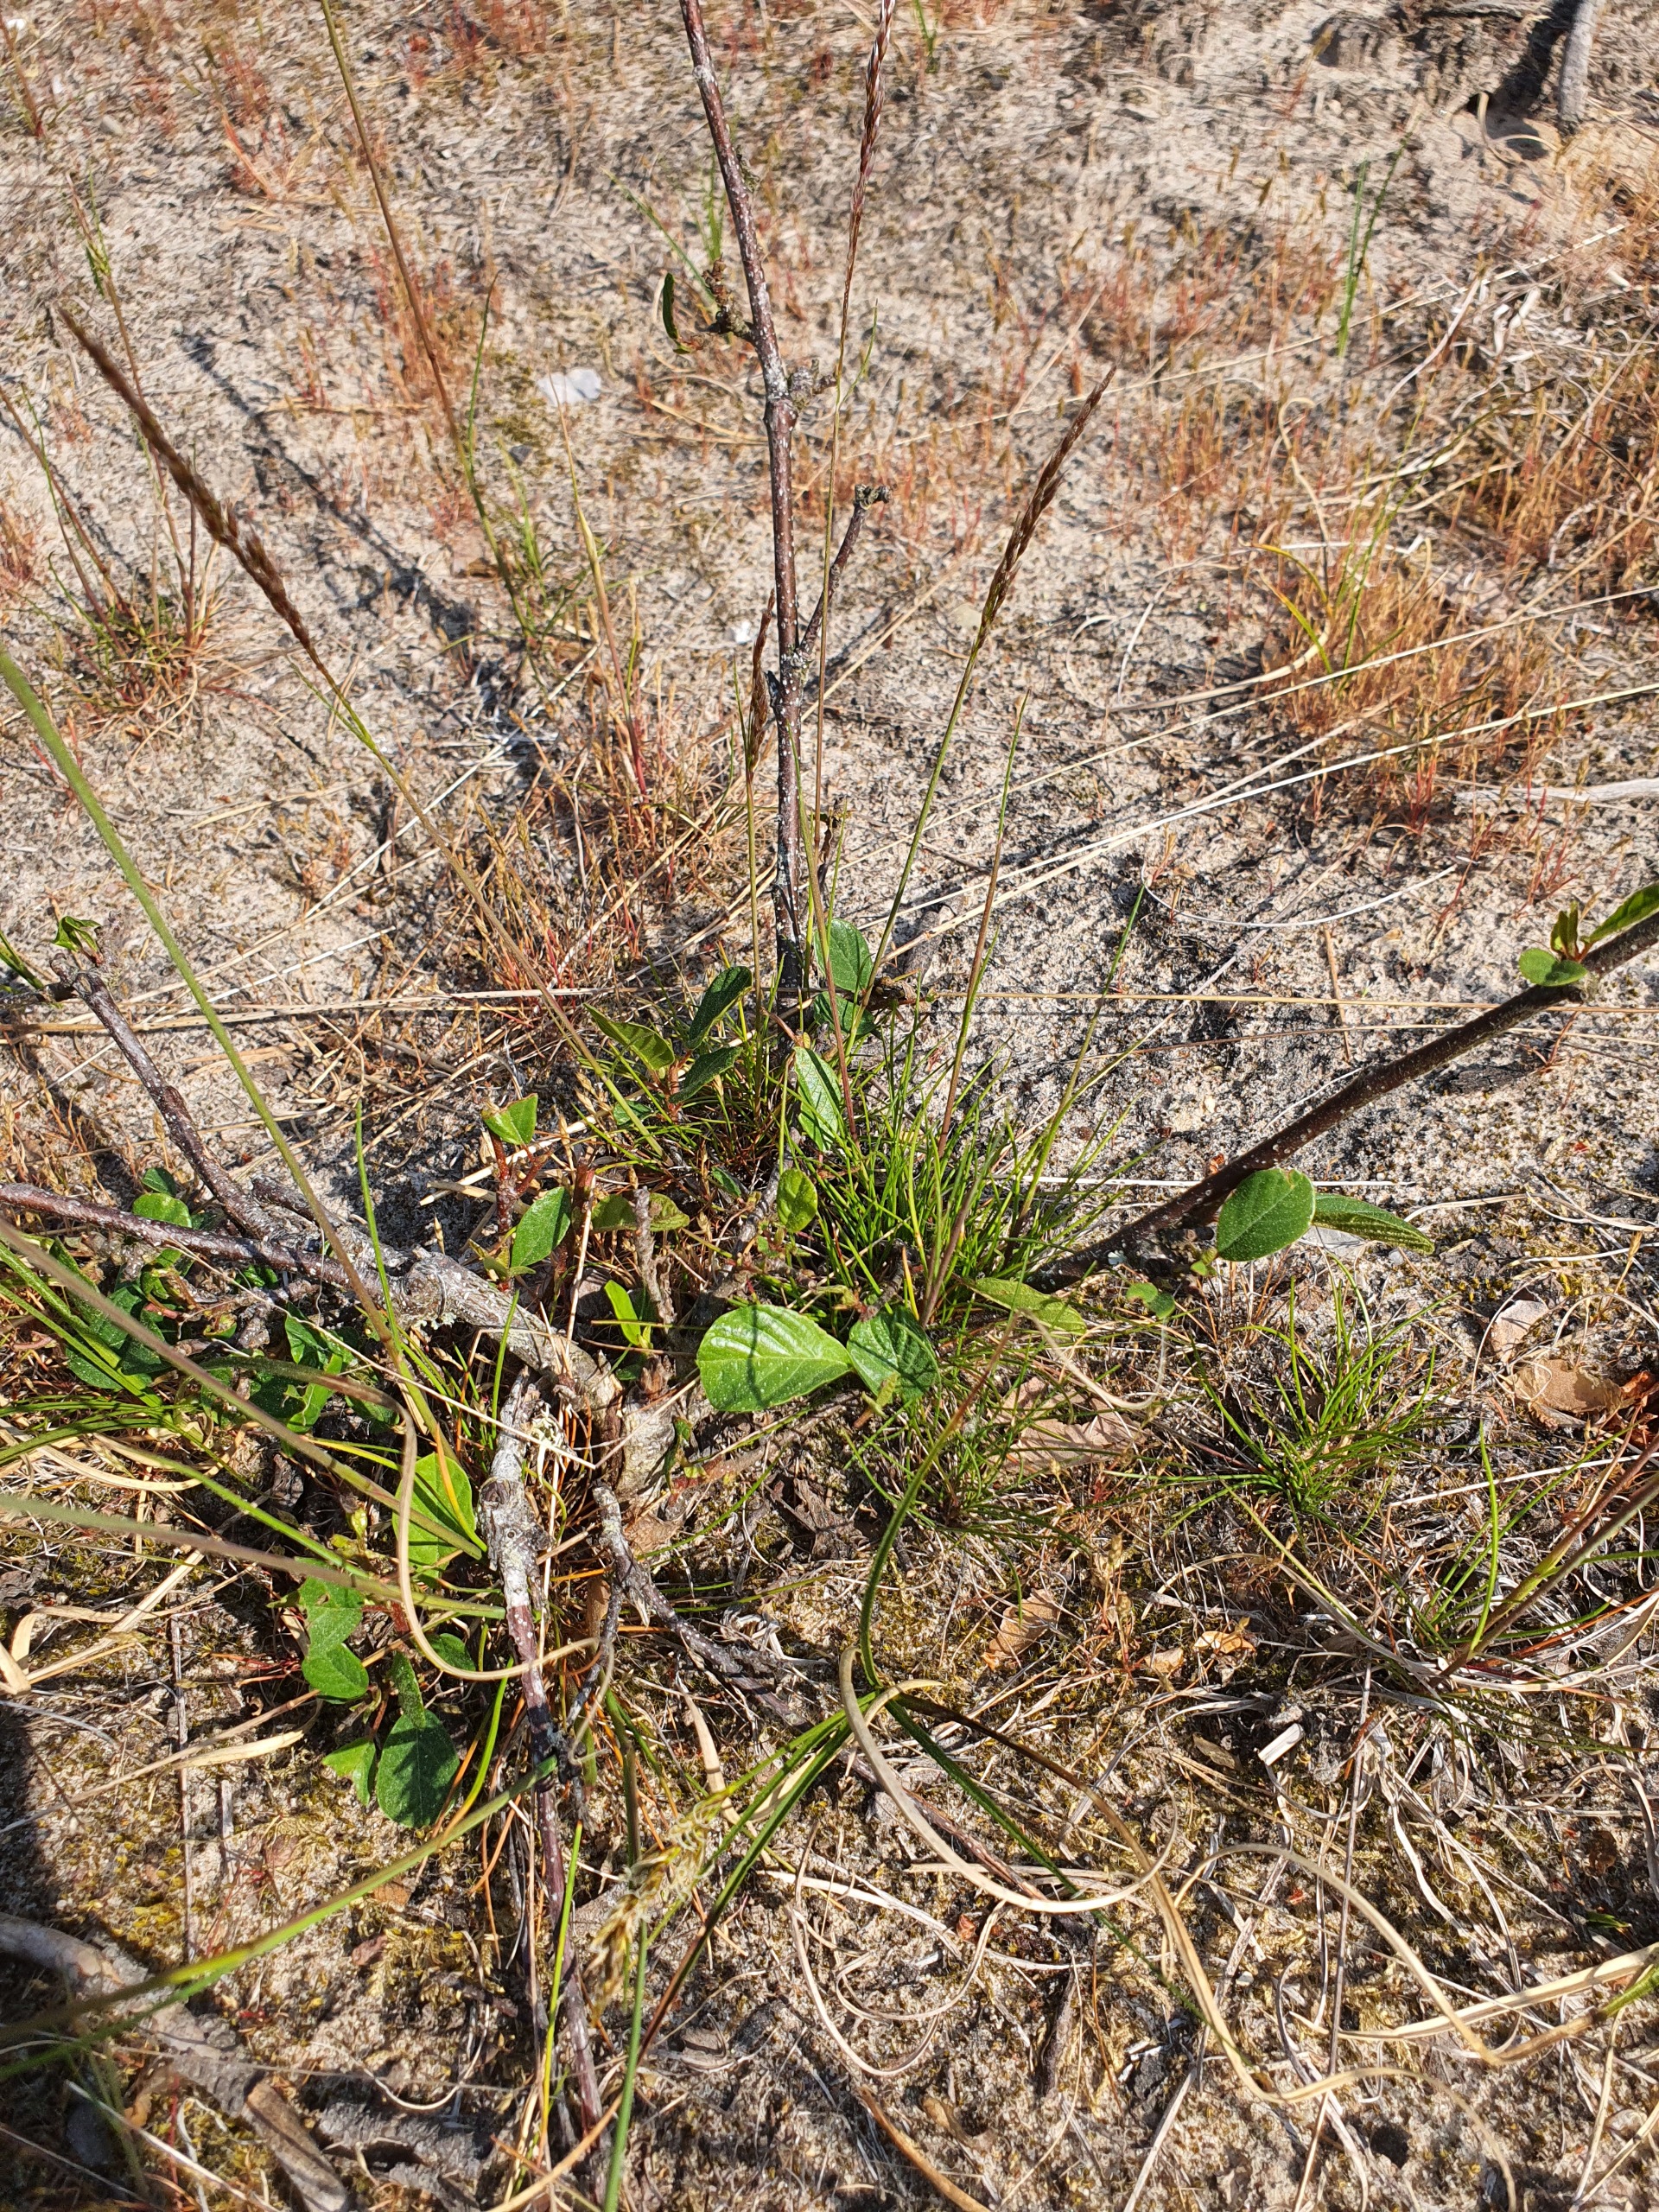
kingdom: Plantae
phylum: Tracheophyta
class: Magnoliopsida
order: Rosales
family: Rhamnaceae
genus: Frangula
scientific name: Frangula alnus
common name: Tørst
